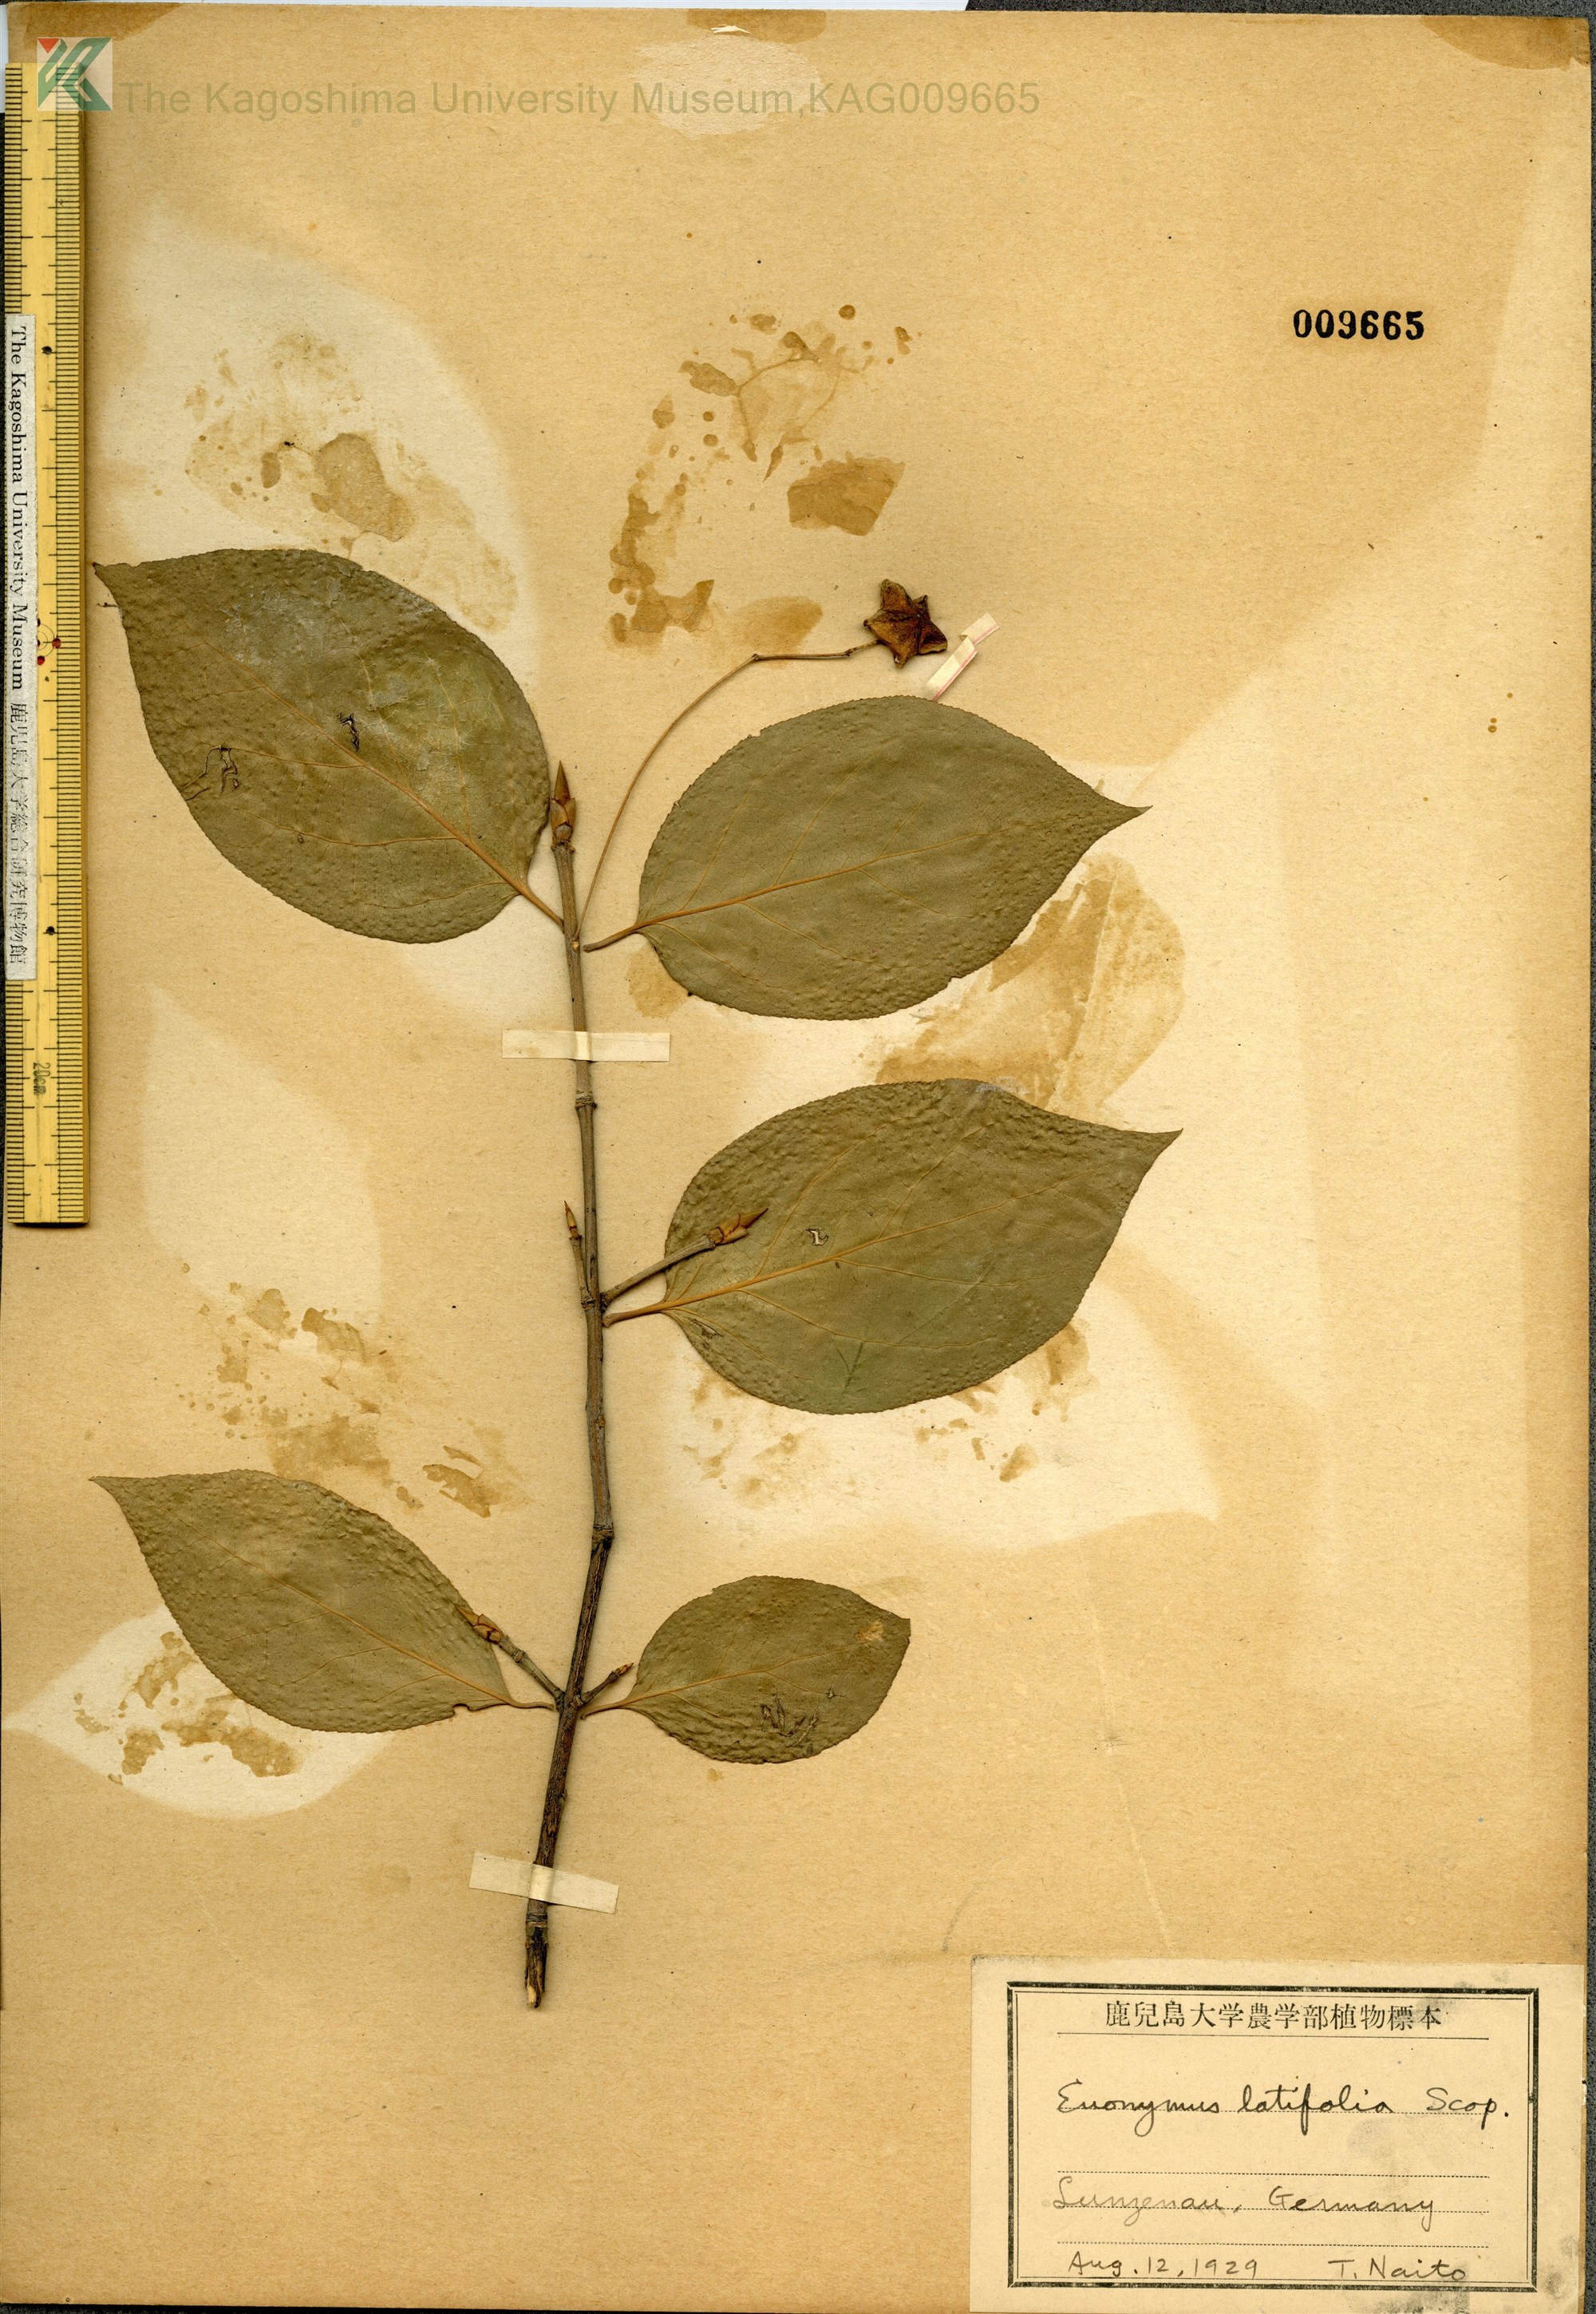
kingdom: Plantae
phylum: Tracheophyta
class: Magnoliopsida
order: Celastrales
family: Celastraceae
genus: Euonymus
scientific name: Euonymus latifolius
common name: Large-leaved spindle
